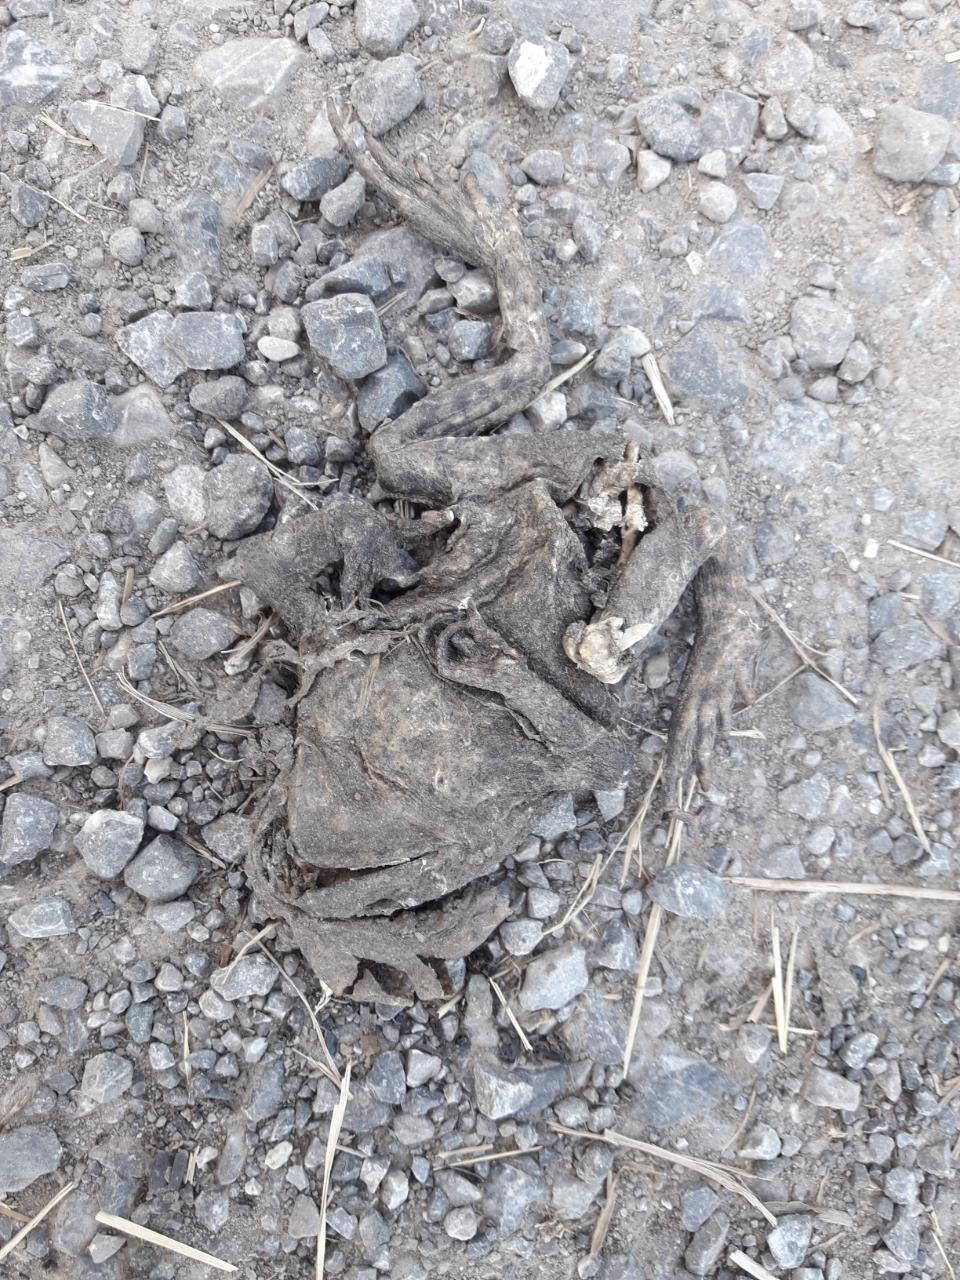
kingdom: Animalia
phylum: Chordata
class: Amphibia
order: Anura
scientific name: Anura
